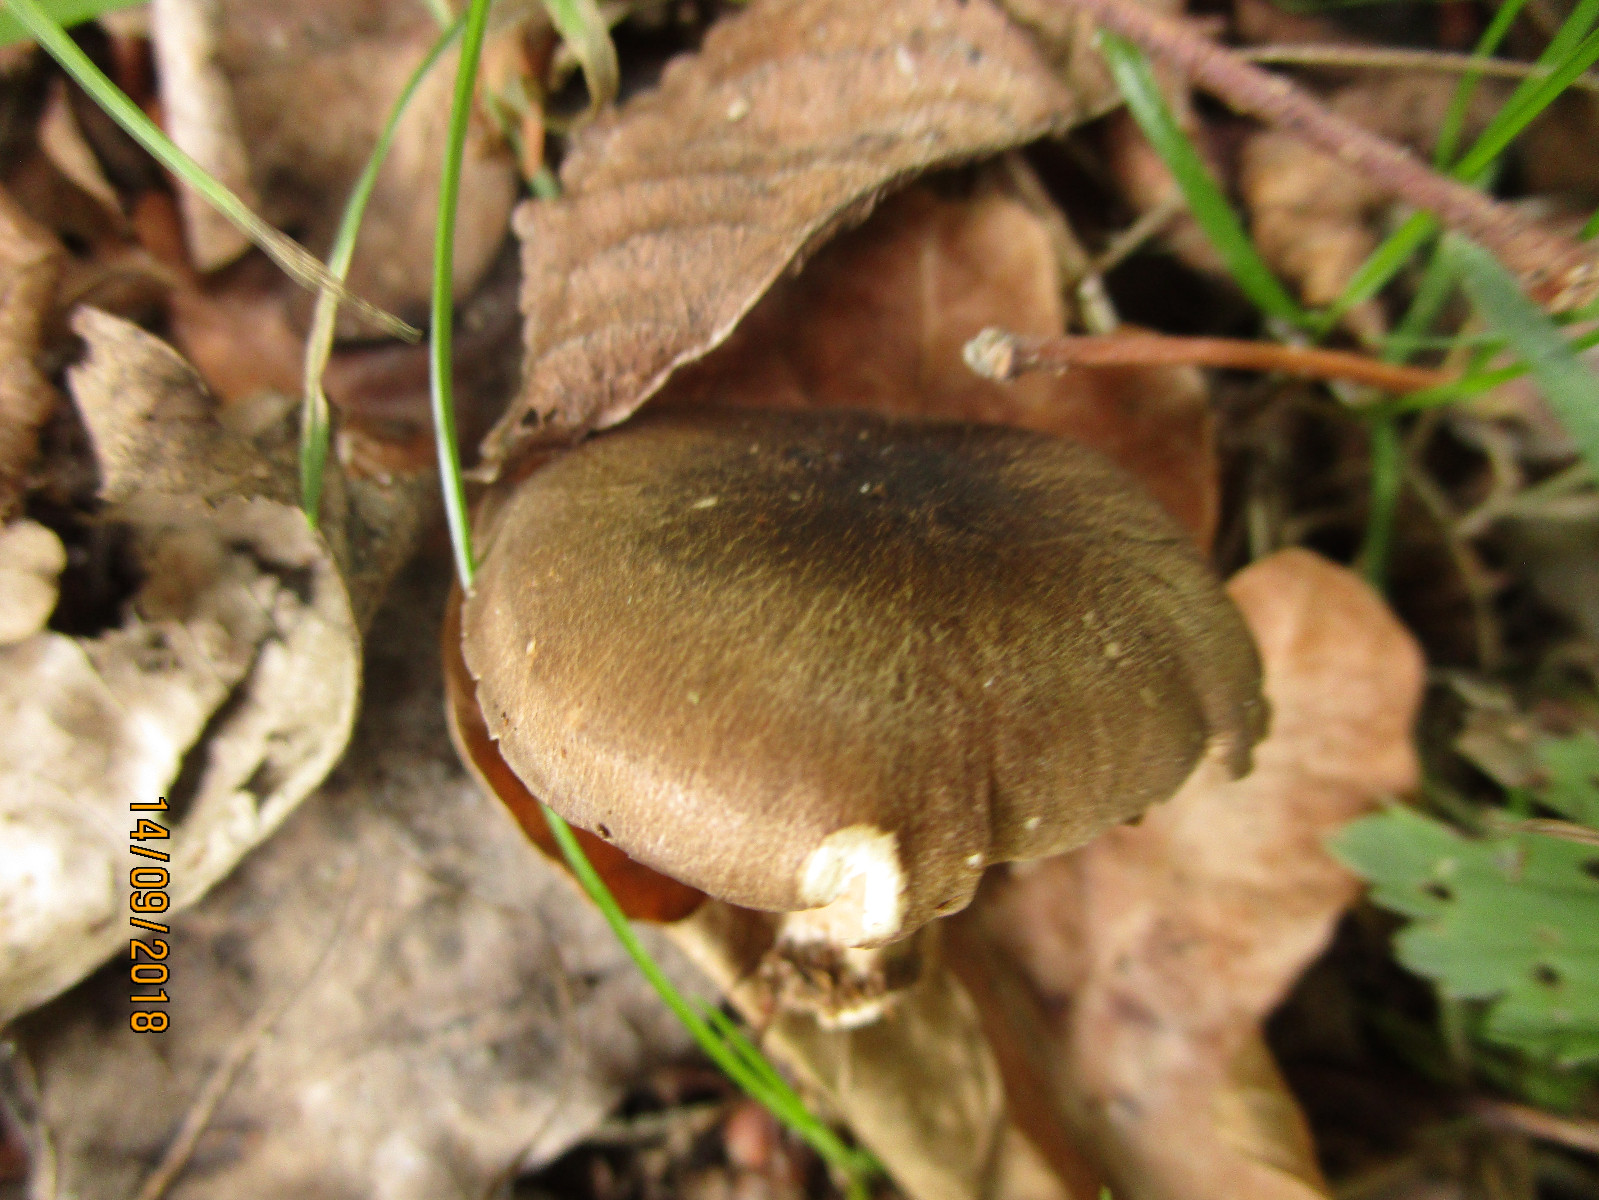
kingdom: Fungi
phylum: Basidiomycota
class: Agaricomycetes
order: Agaricales
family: Tricholomataceae
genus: Megacollybia
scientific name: Megacollybia platyphylla
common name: bredbladet væbnerhat
